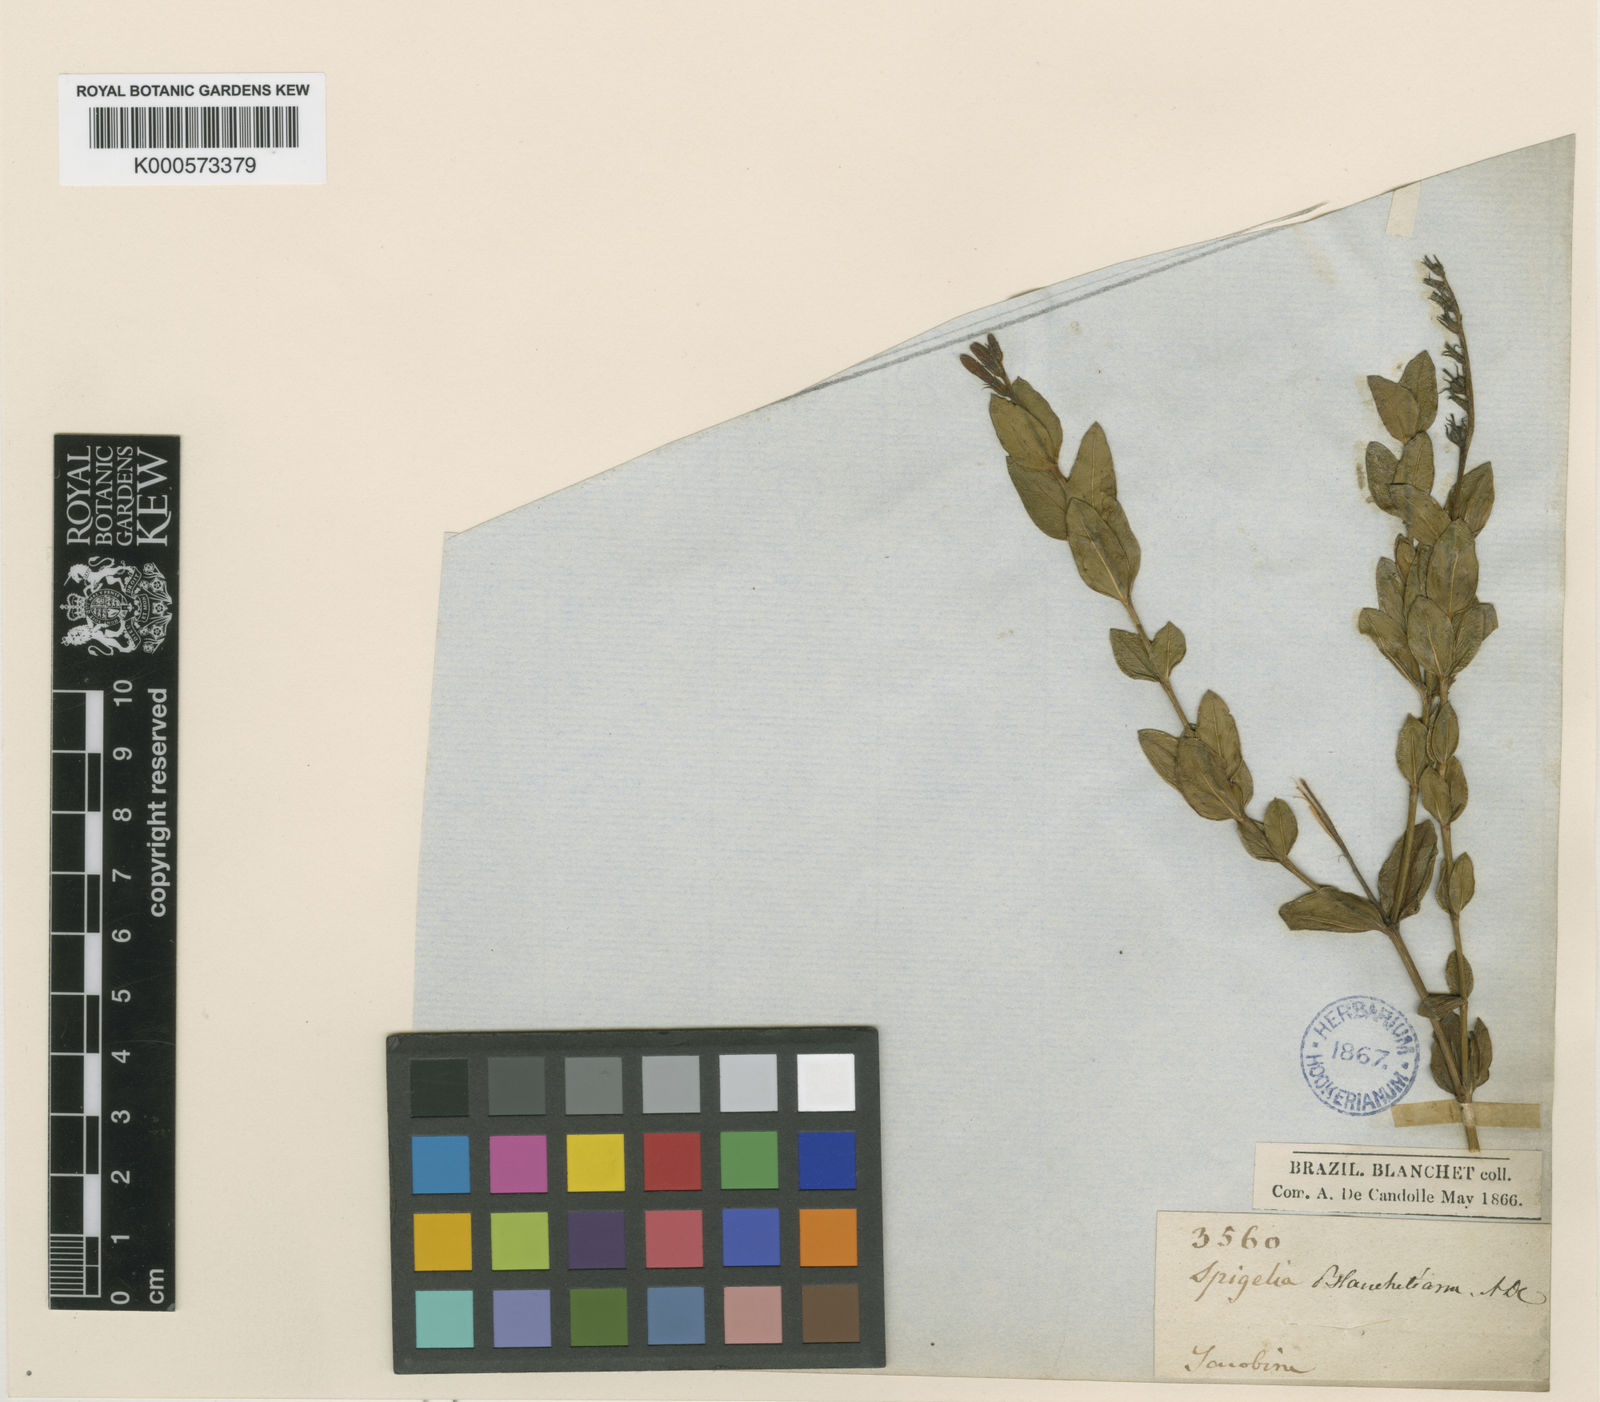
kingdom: Plantae
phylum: Tracheophyta
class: Magnoliopsida
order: Gentianales
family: Loganiaceae
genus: Spigelia
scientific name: Spigelia blanchetiana
